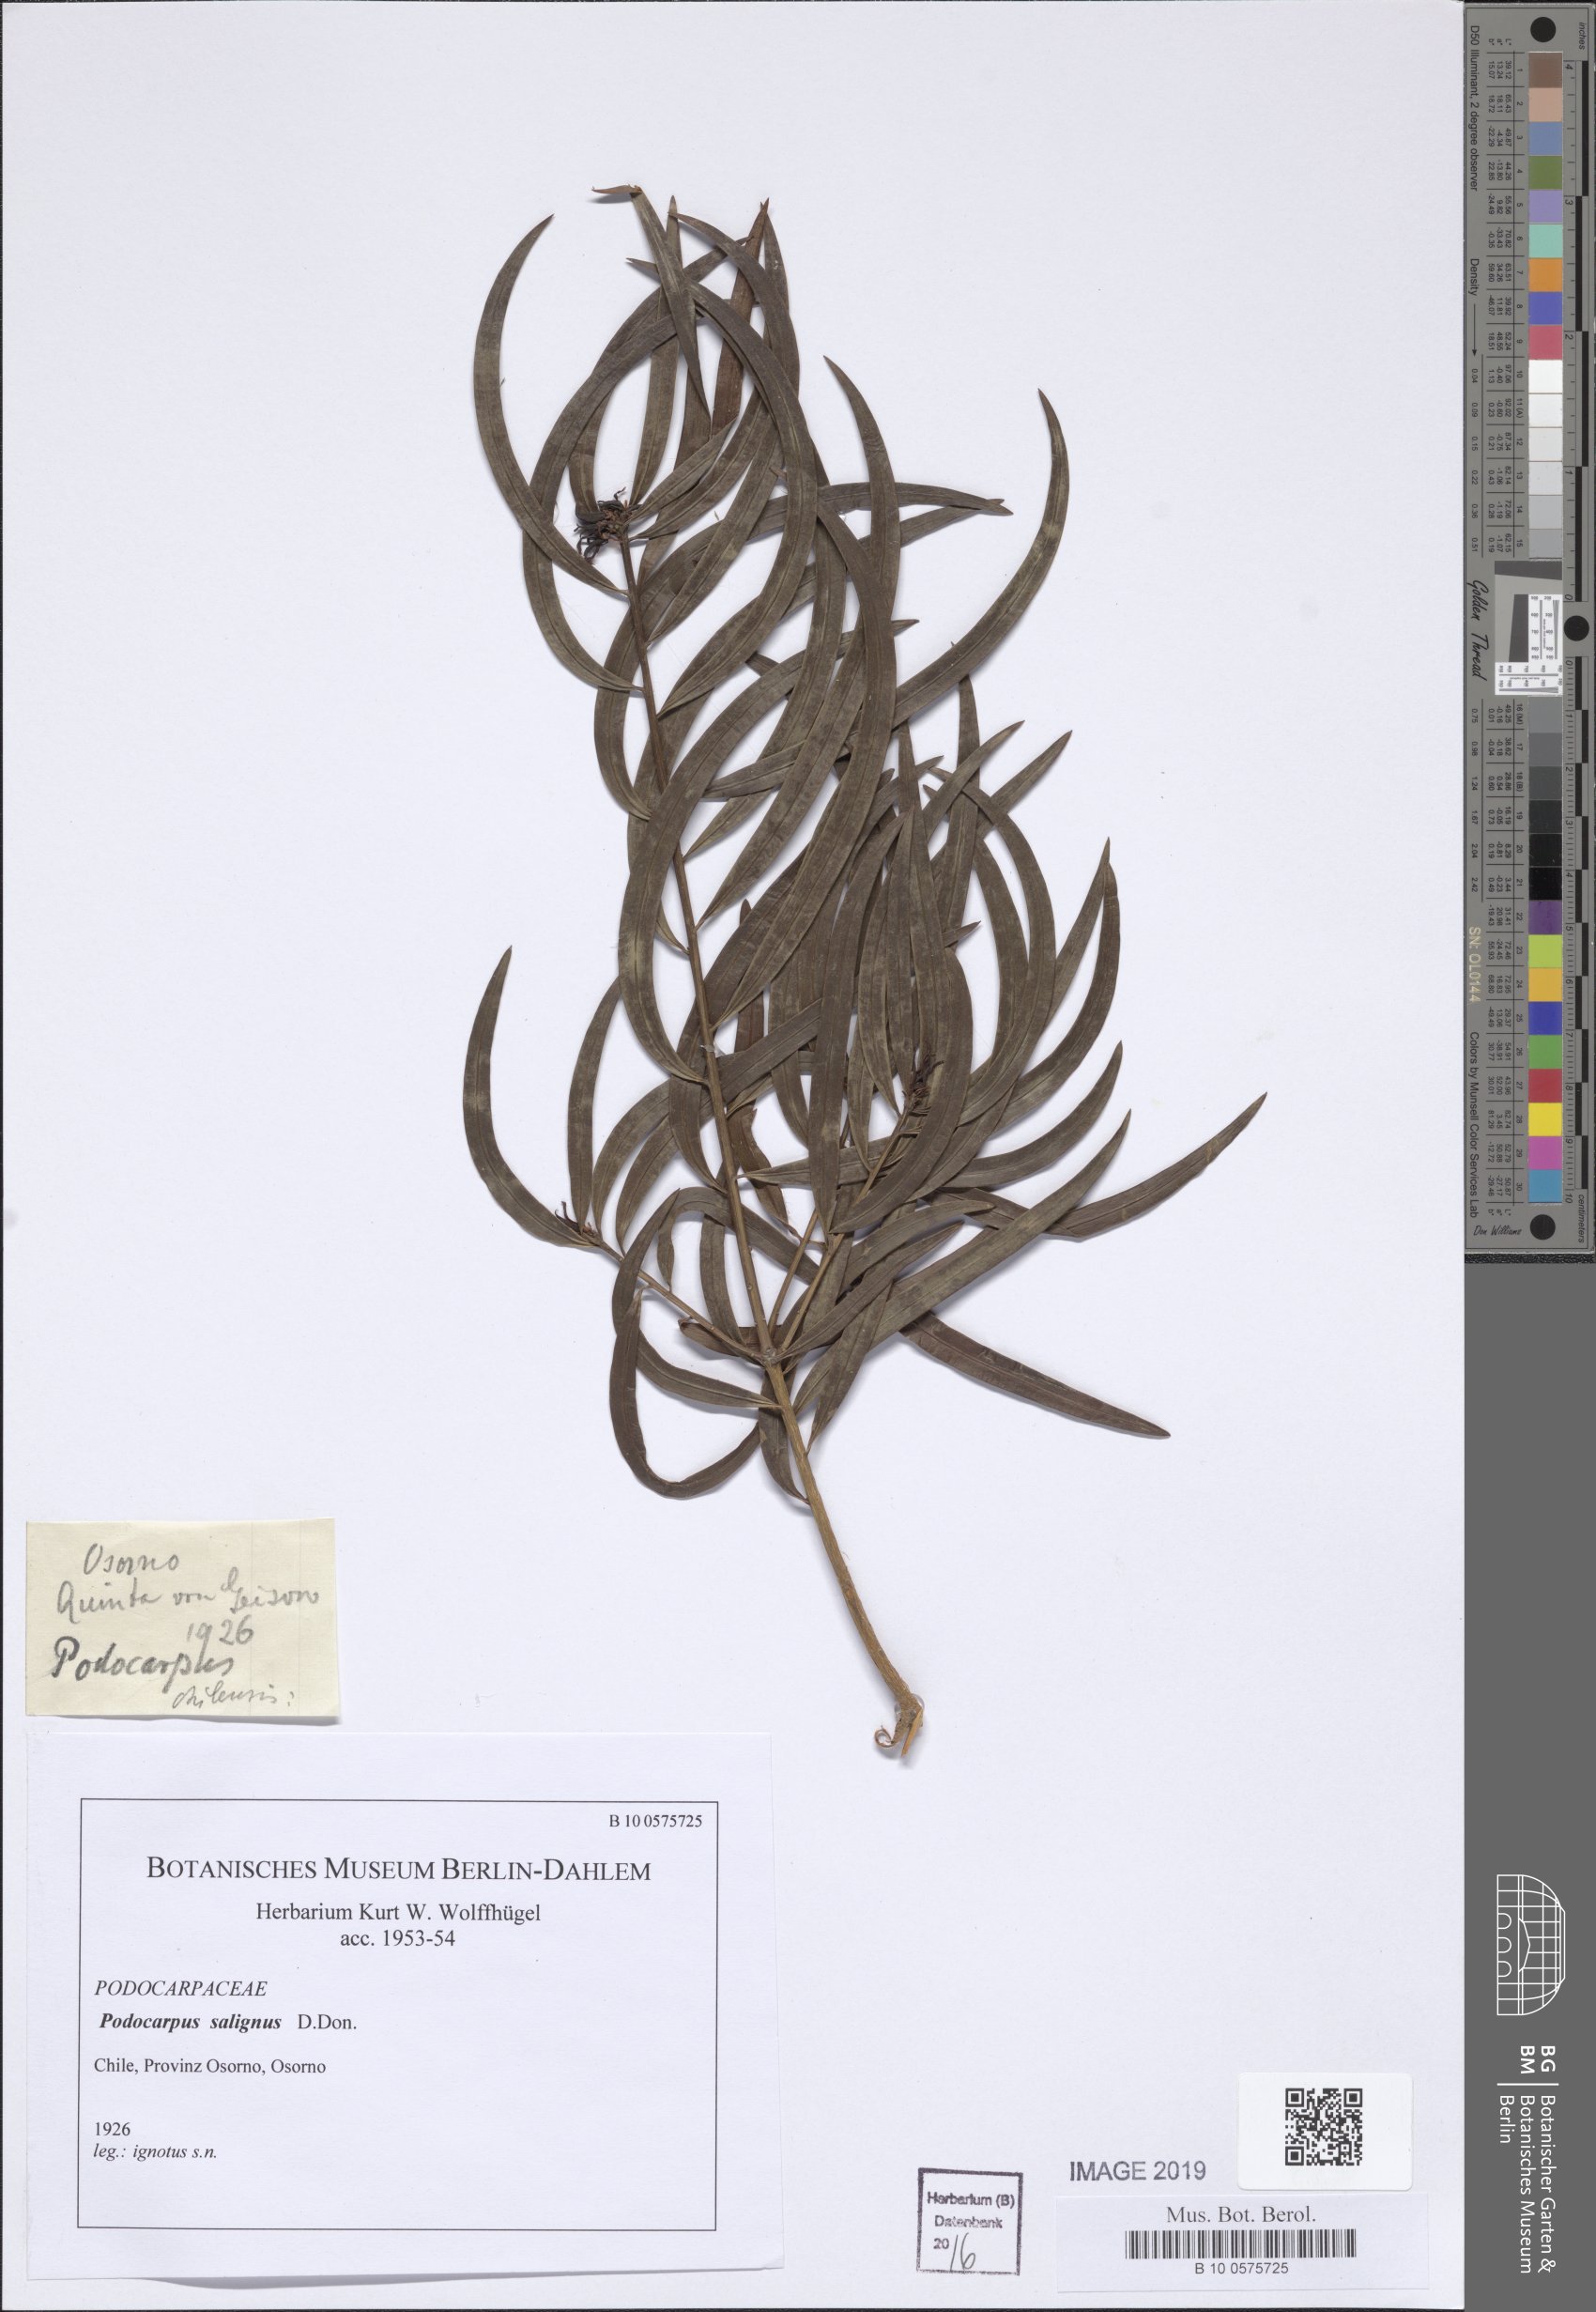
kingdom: Plantae
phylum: Tracheophyta
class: Pinopsida
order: Pinales
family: Podocarpaceae
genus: Podocarpus
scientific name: Podocarpus salignus
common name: Willow-leaf podocarp
